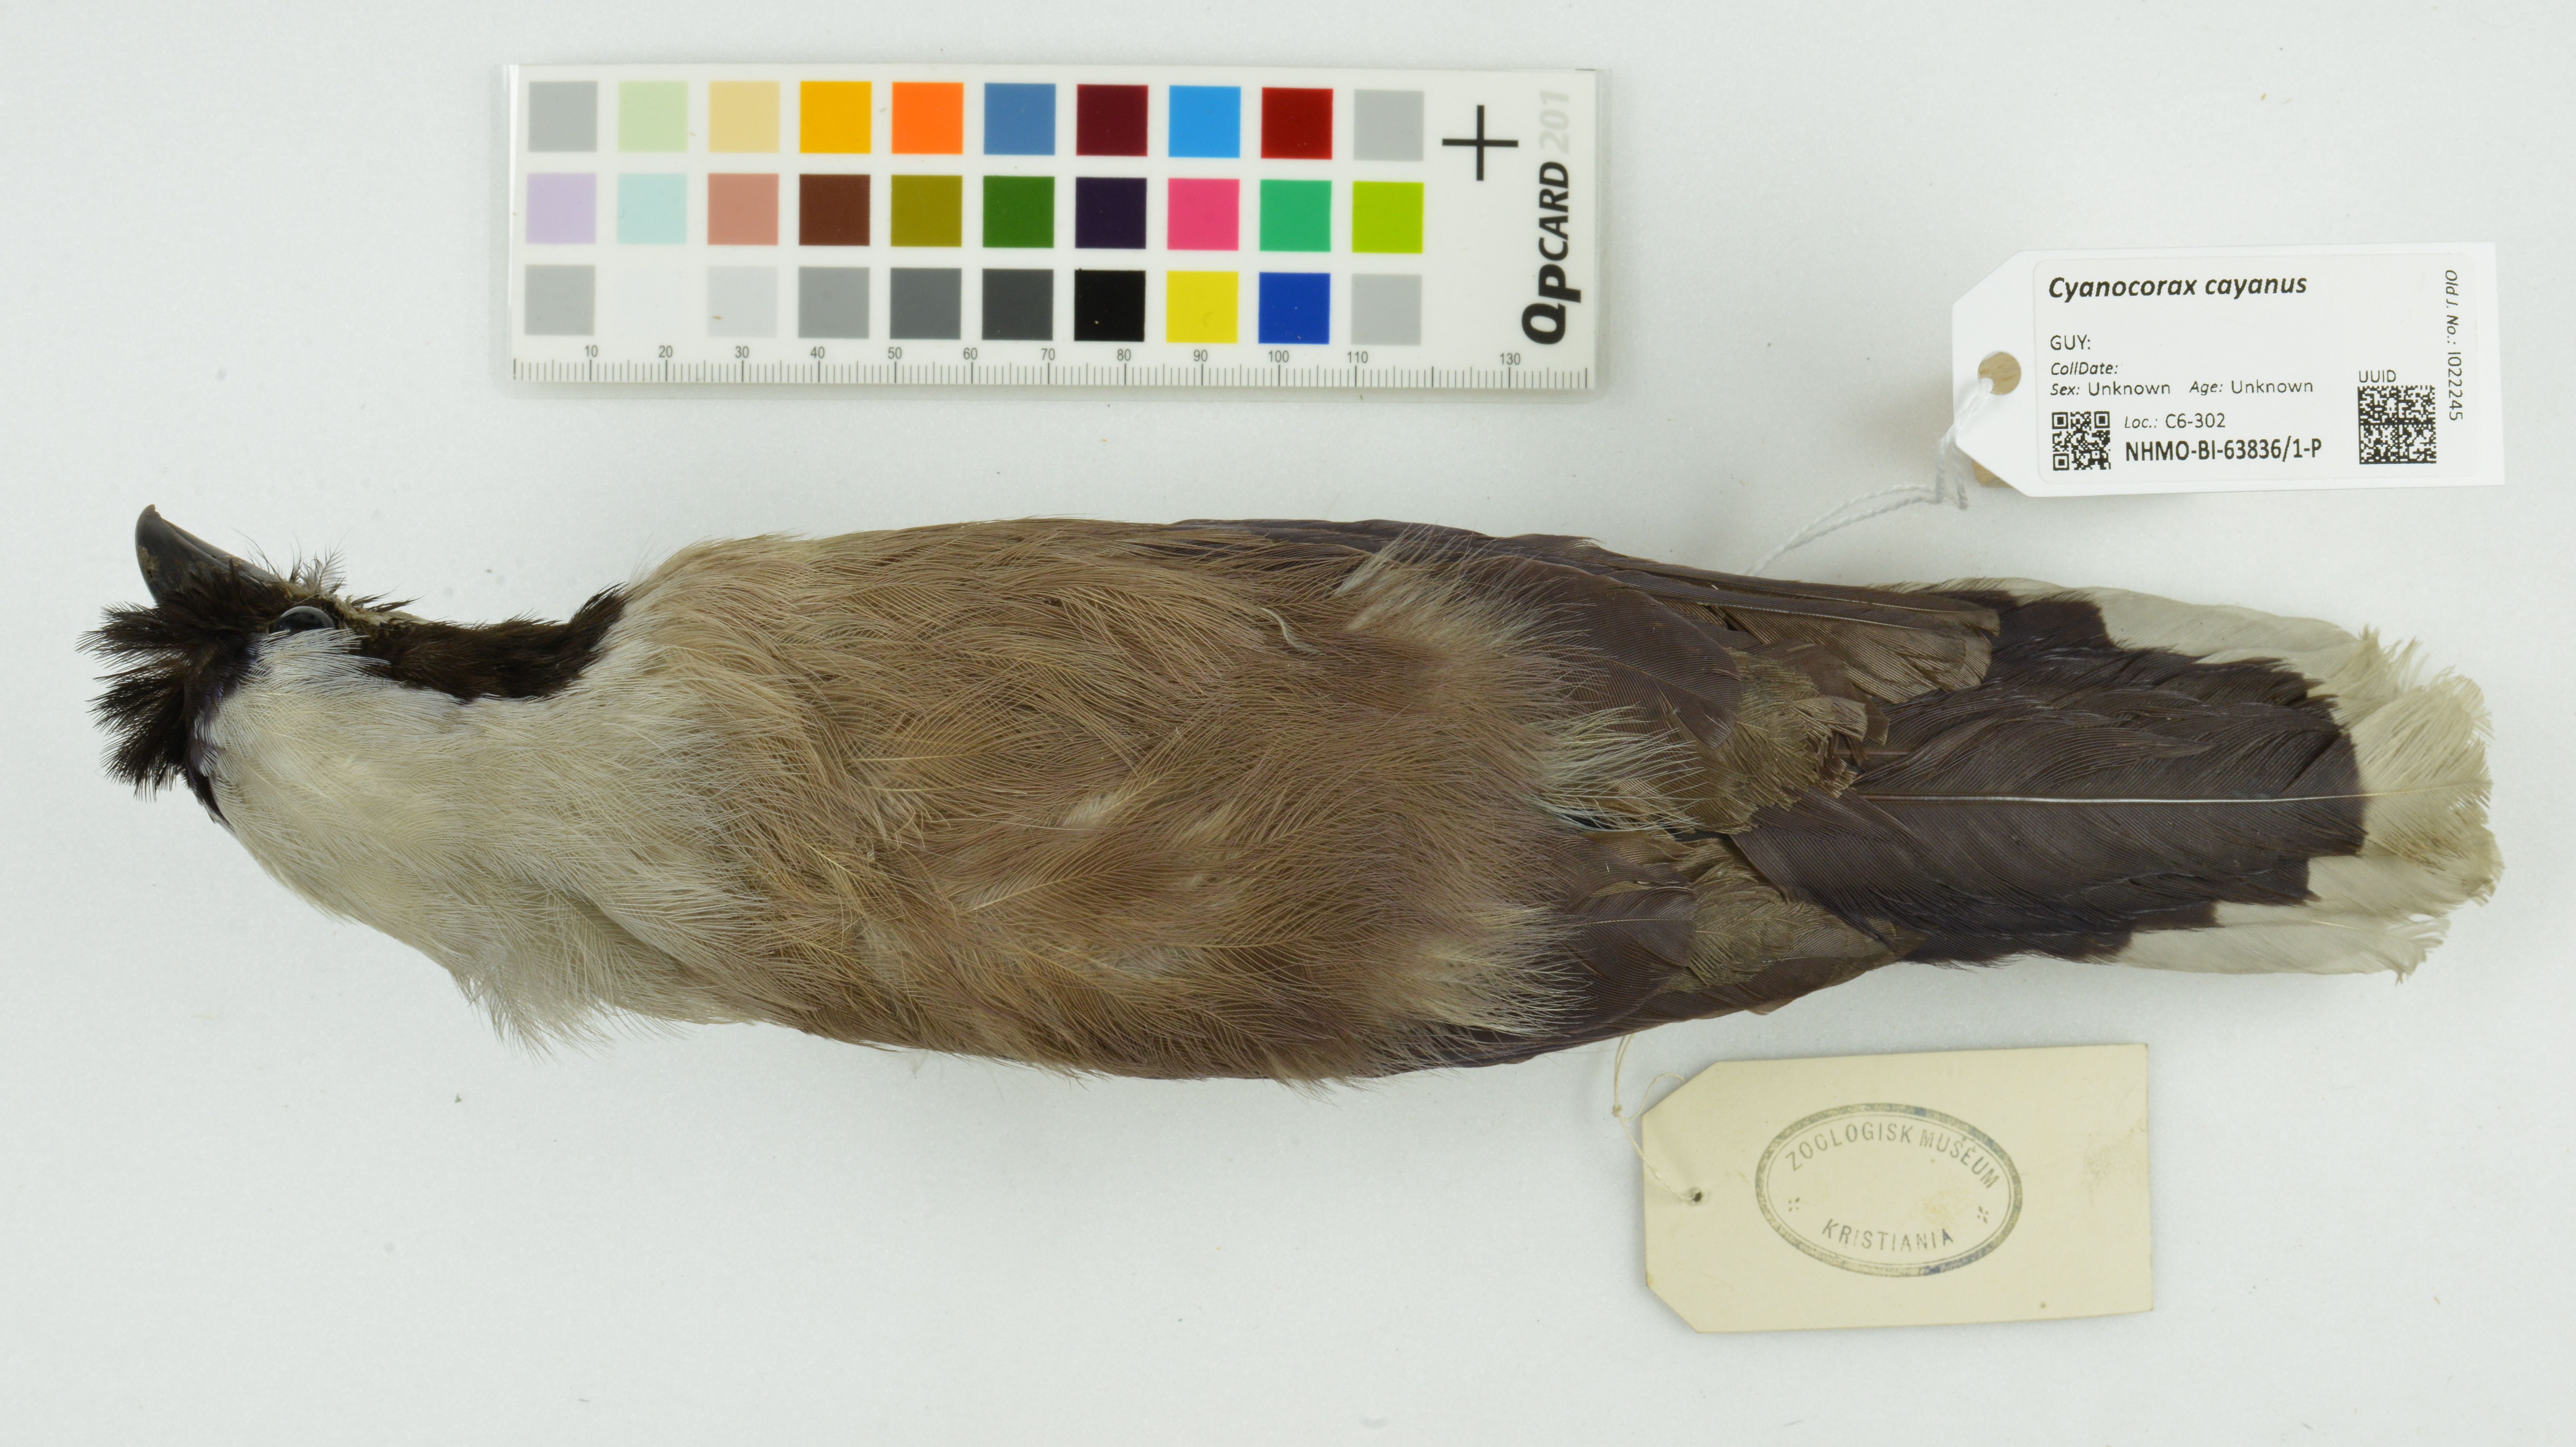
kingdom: Animalia
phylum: Chordata
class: Aves
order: Passeriformes
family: Corvidae
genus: Cyanocorax
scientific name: Cyanocorax cayanus
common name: Cayenne jay
